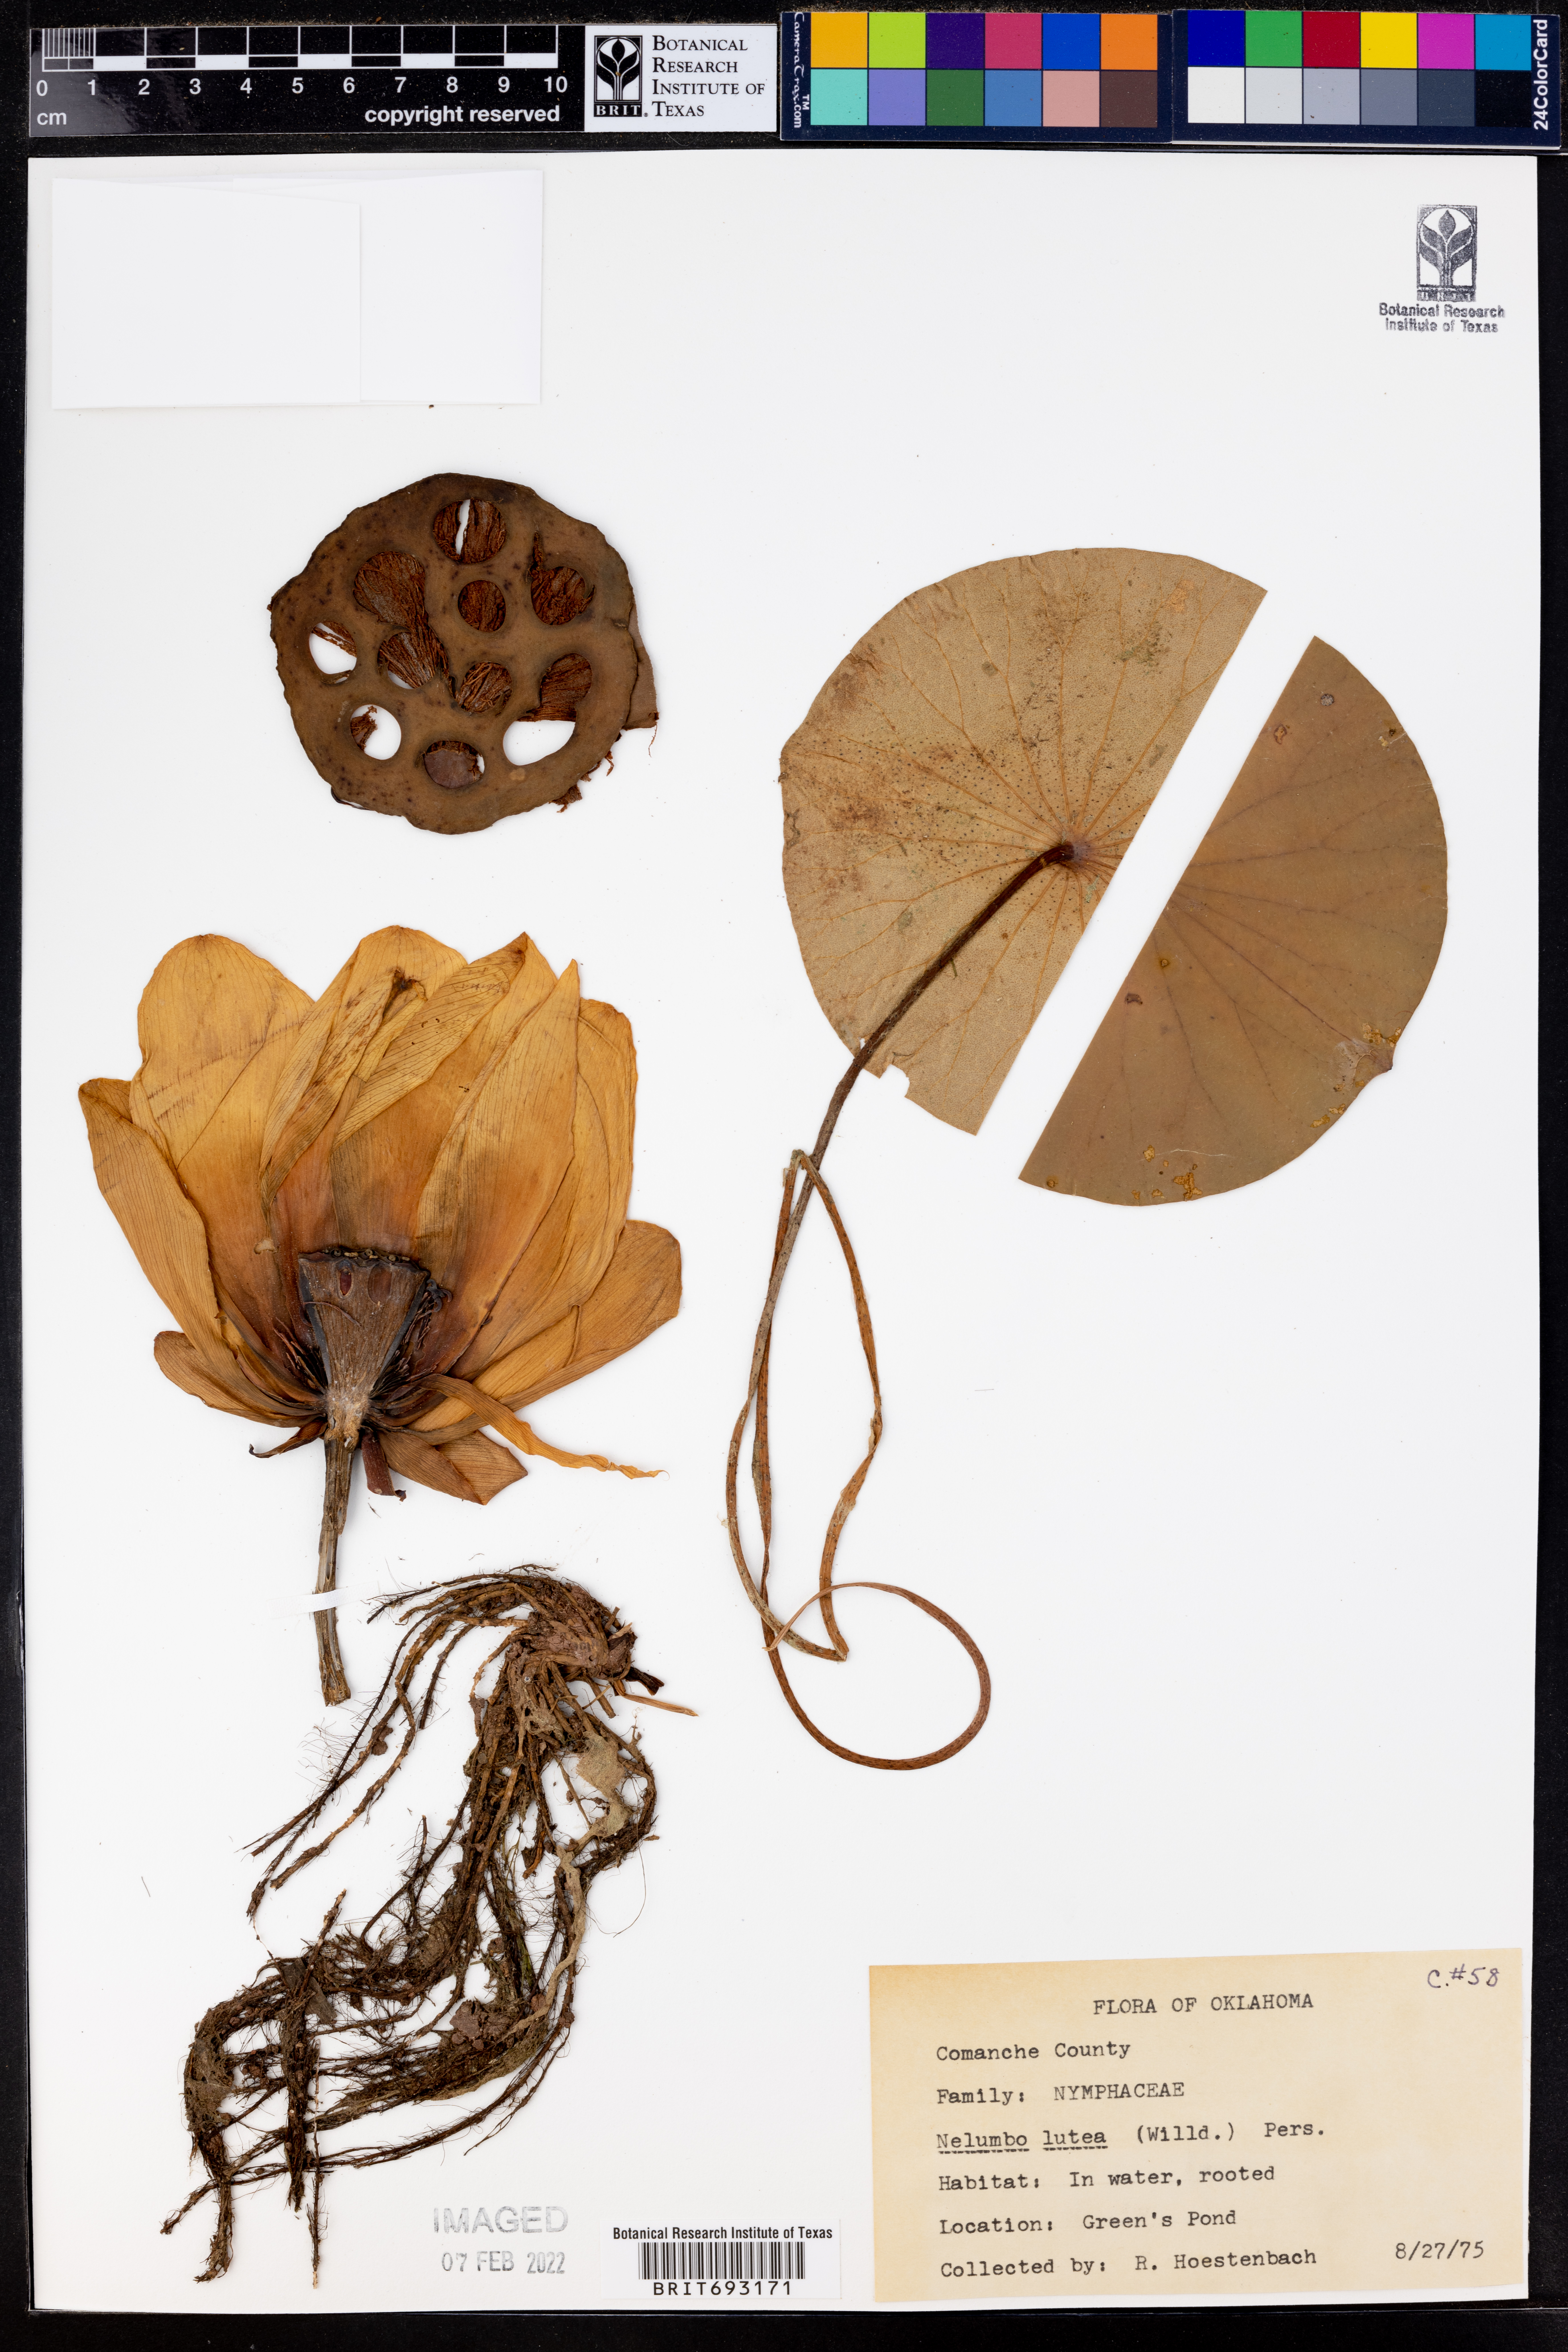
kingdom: Plantae
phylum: Tracheophyta
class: Magnoliopsida
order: Proteales
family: Nelumbonaceae
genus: Nelumbo
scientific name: Nelumbo lutea
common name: American lotus
